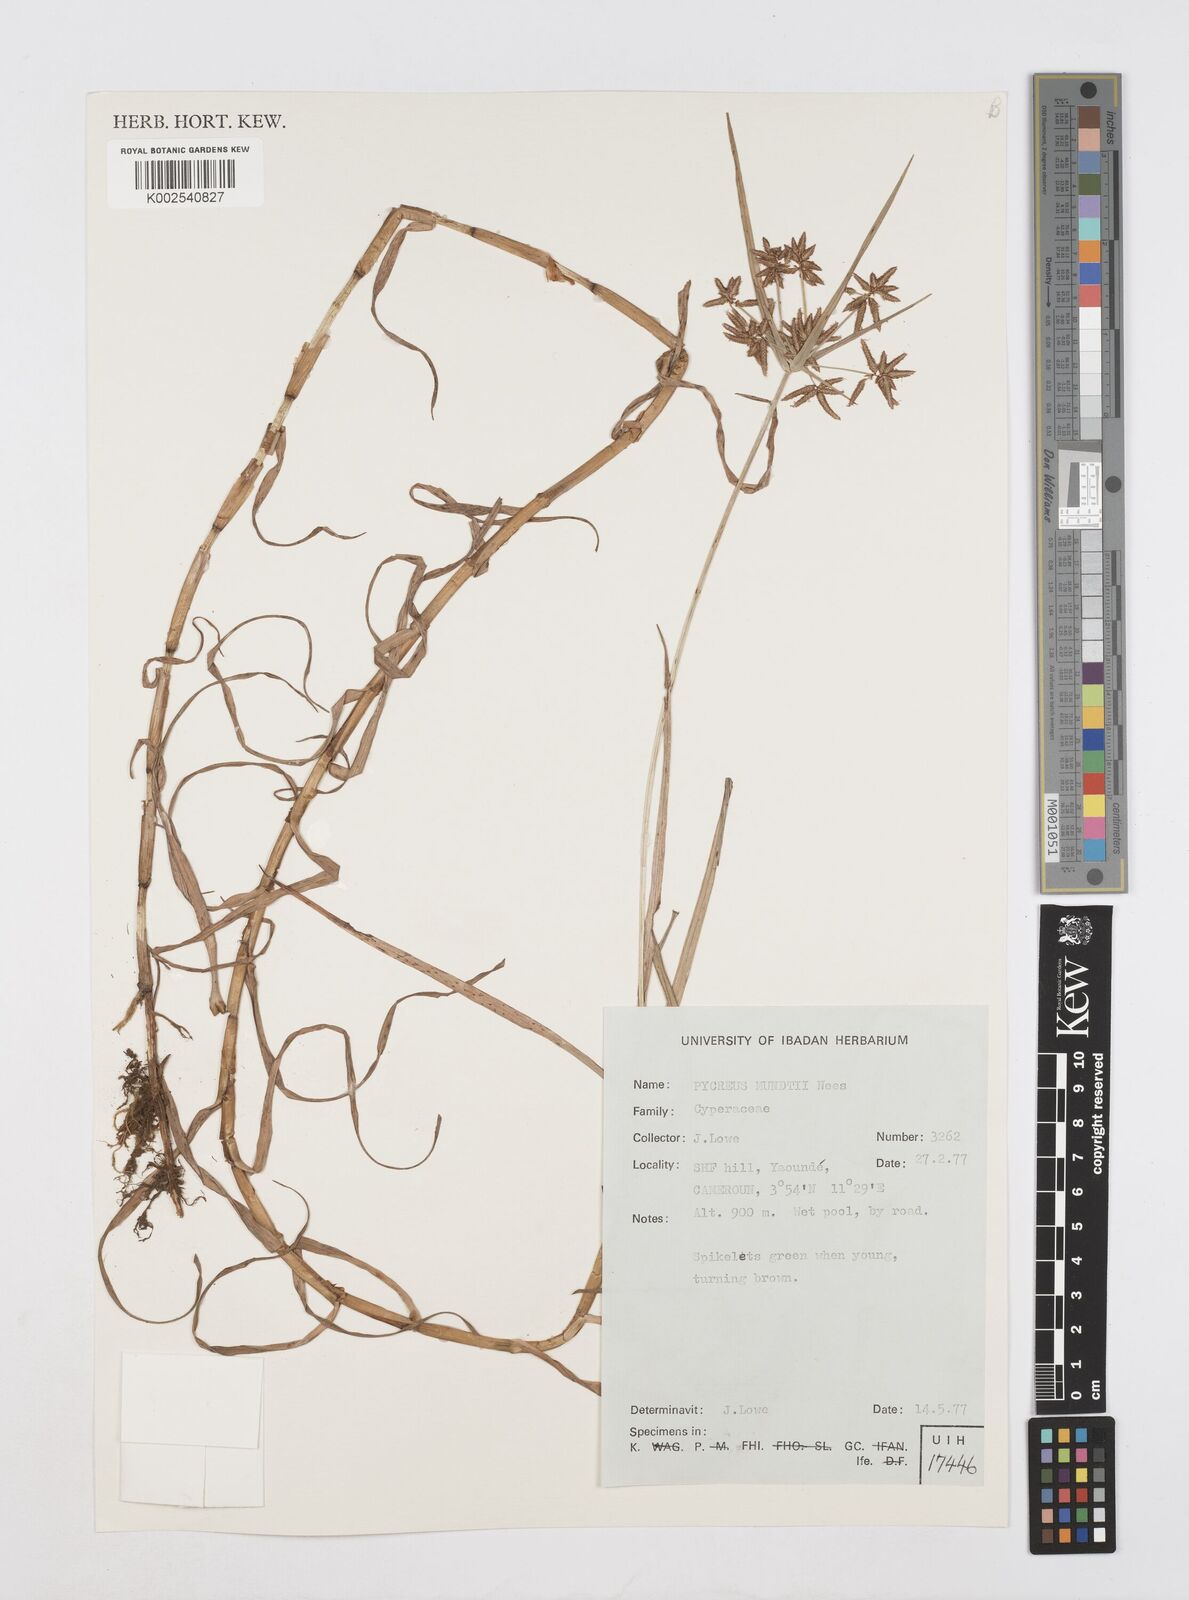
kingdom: Plantae
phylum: Tracheophyta
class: Liliopsida
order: Poales
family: Cyperaceae
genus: Cyperus
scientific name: Cyperus mundii
